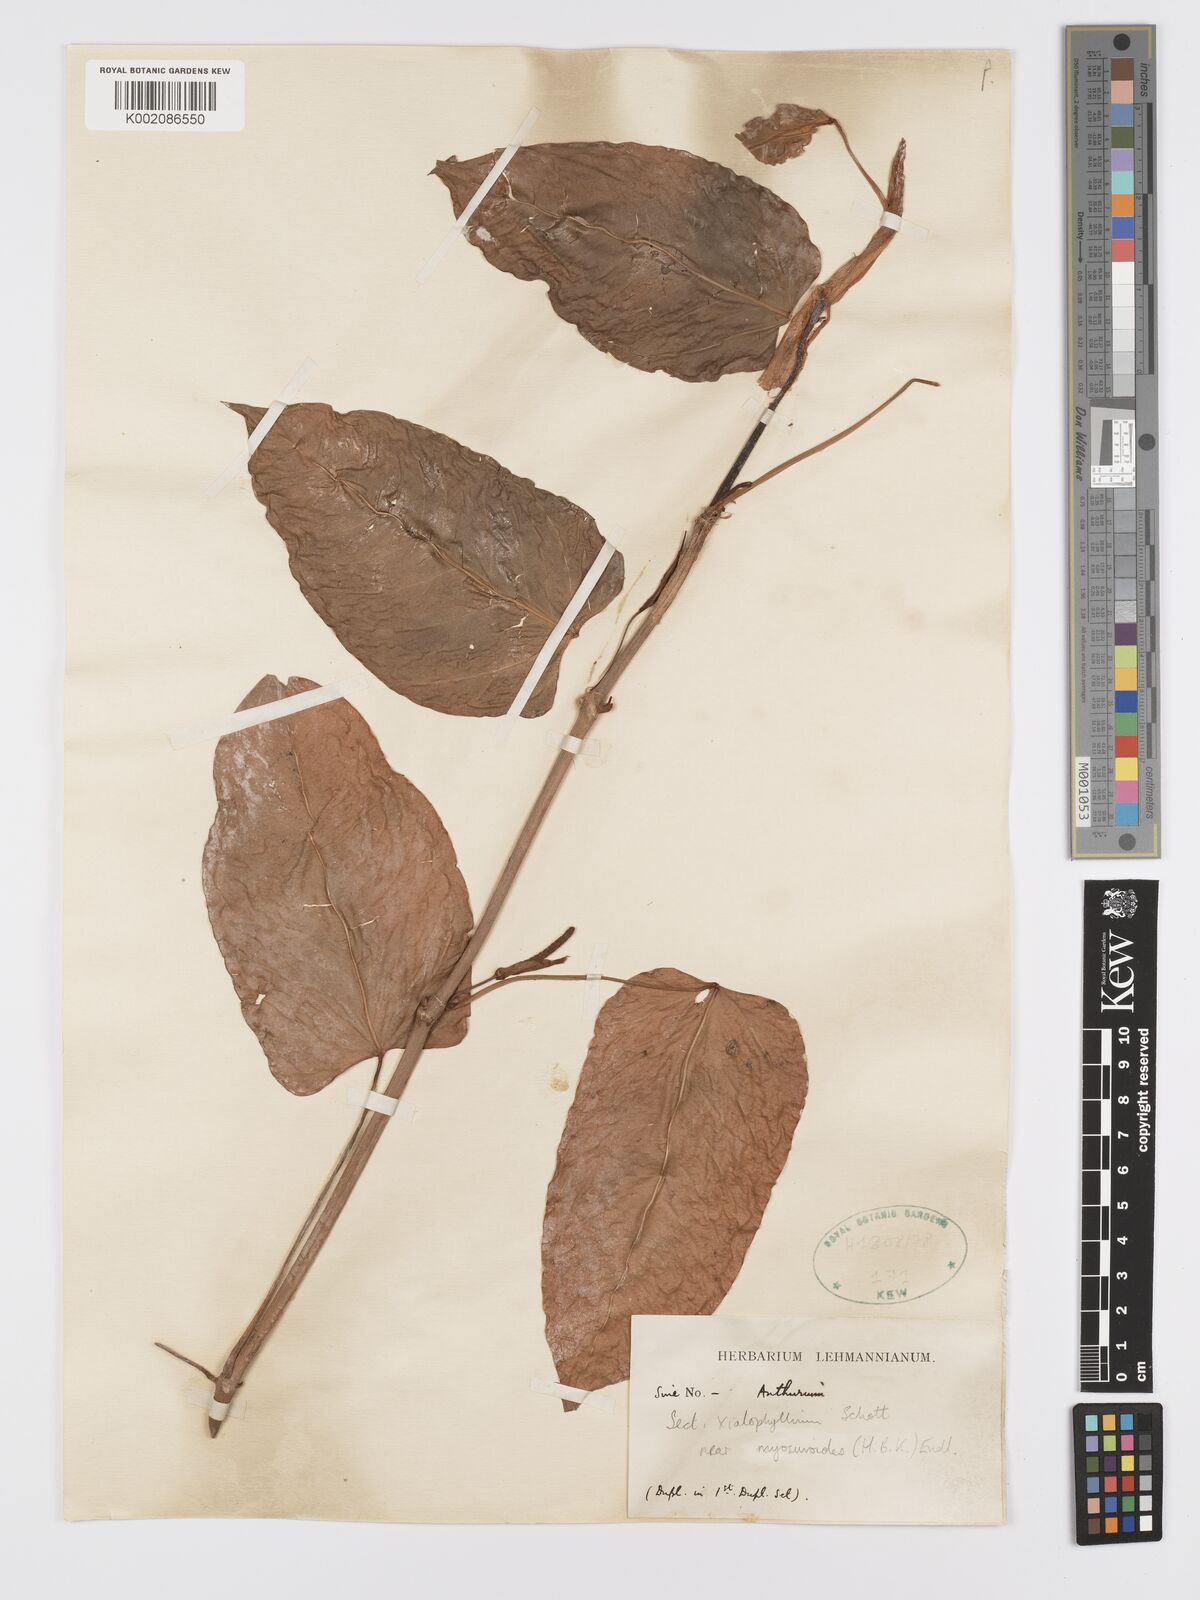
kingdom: Plantae
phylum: Tracheophyta
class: Liliopsida
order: Alismatales
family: Araceae
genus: Anthurium
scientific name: Anthurium myosuroides
